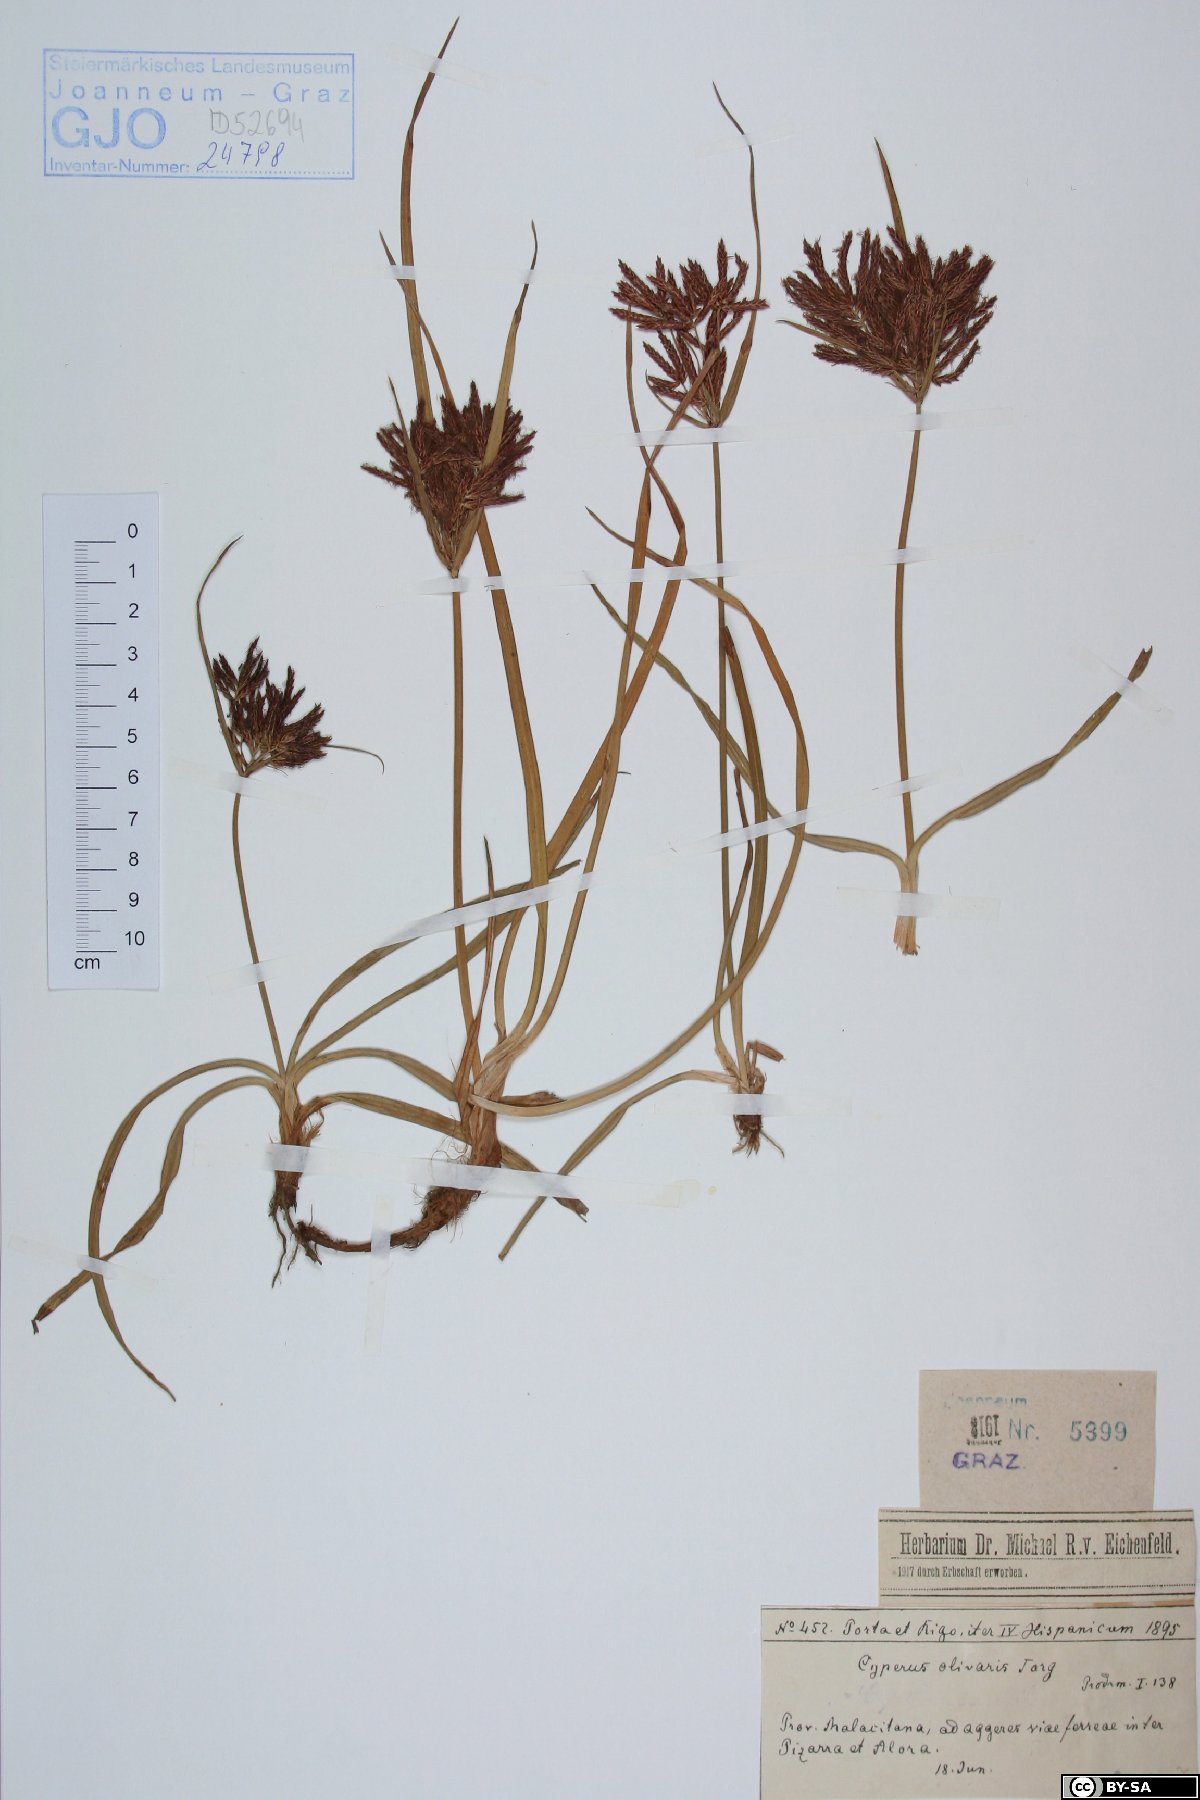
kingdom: Plantae
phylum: Tracheophyta
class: Liliopsida
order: Poales
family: Cyperaceae
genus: Cyperus
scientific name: Cyperus rotundus
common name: Nutgrass
